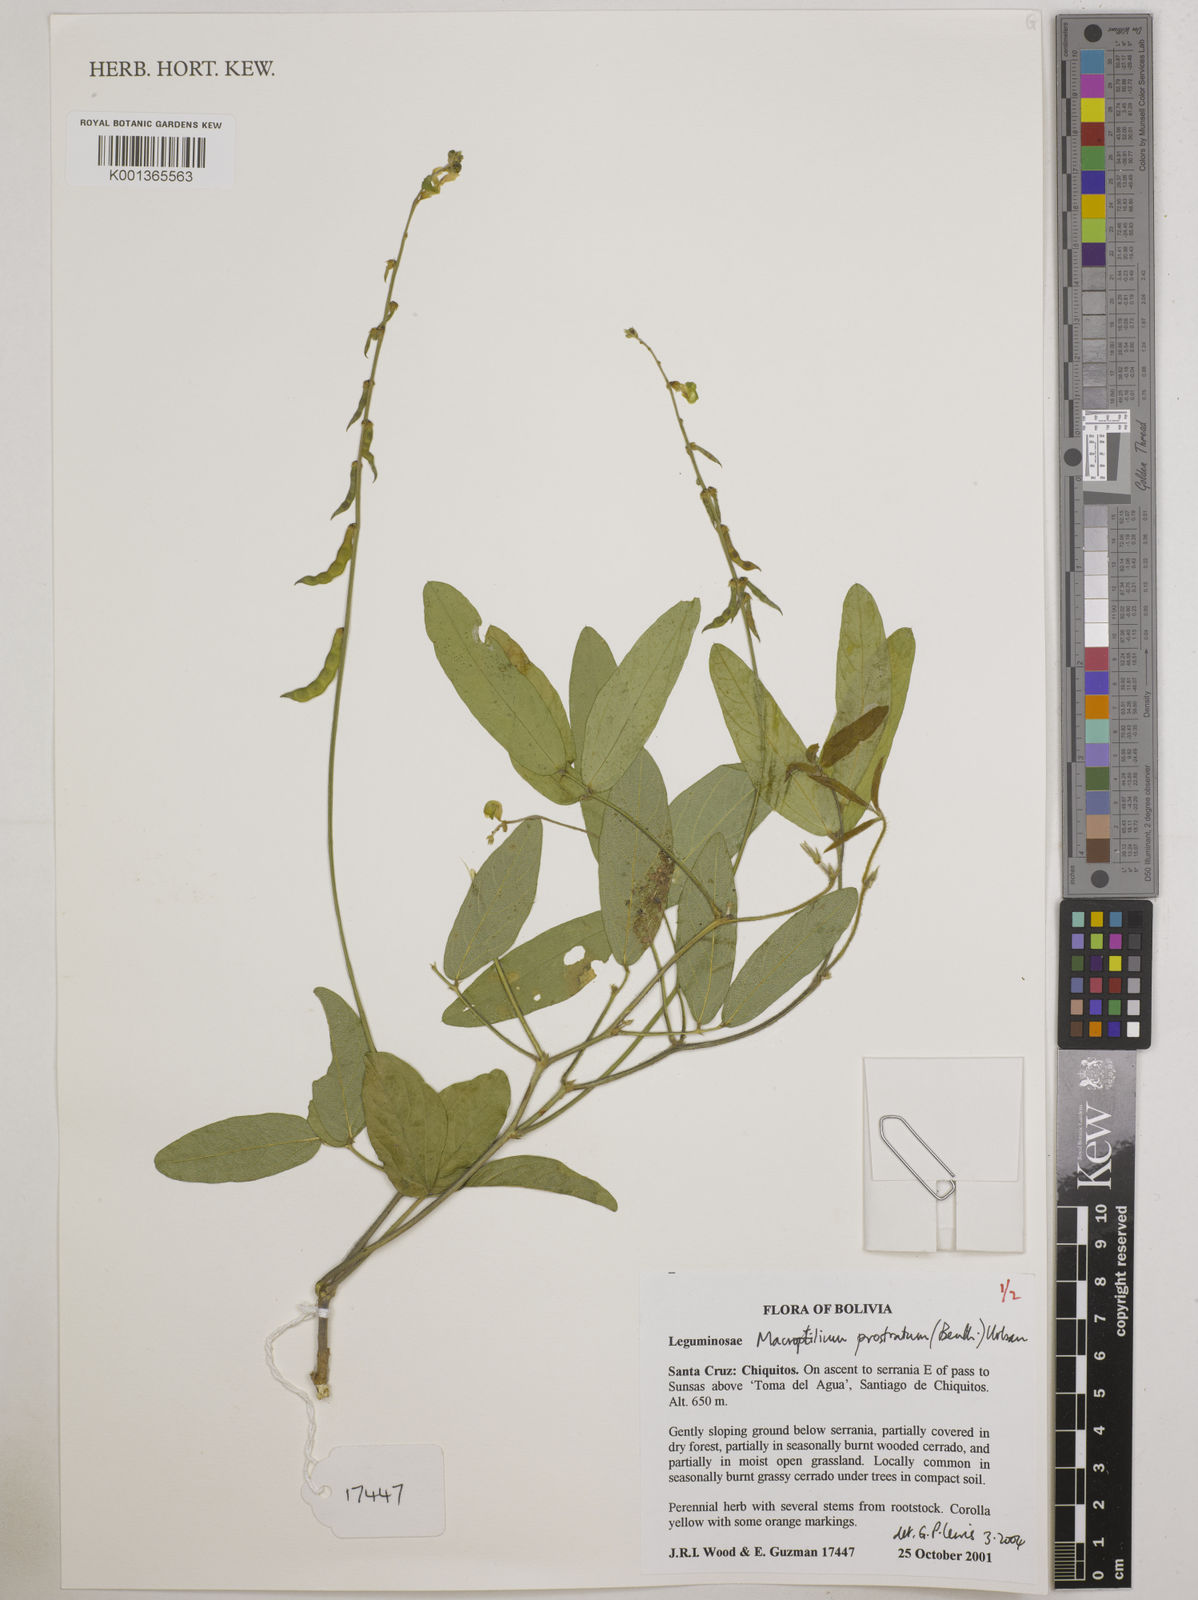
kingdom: Plantae
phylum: Tracheophyta
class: Magnoliopsida
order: Fabales
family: Fabaceae
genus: Macroptilium
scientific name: Macroptilium prostratum
